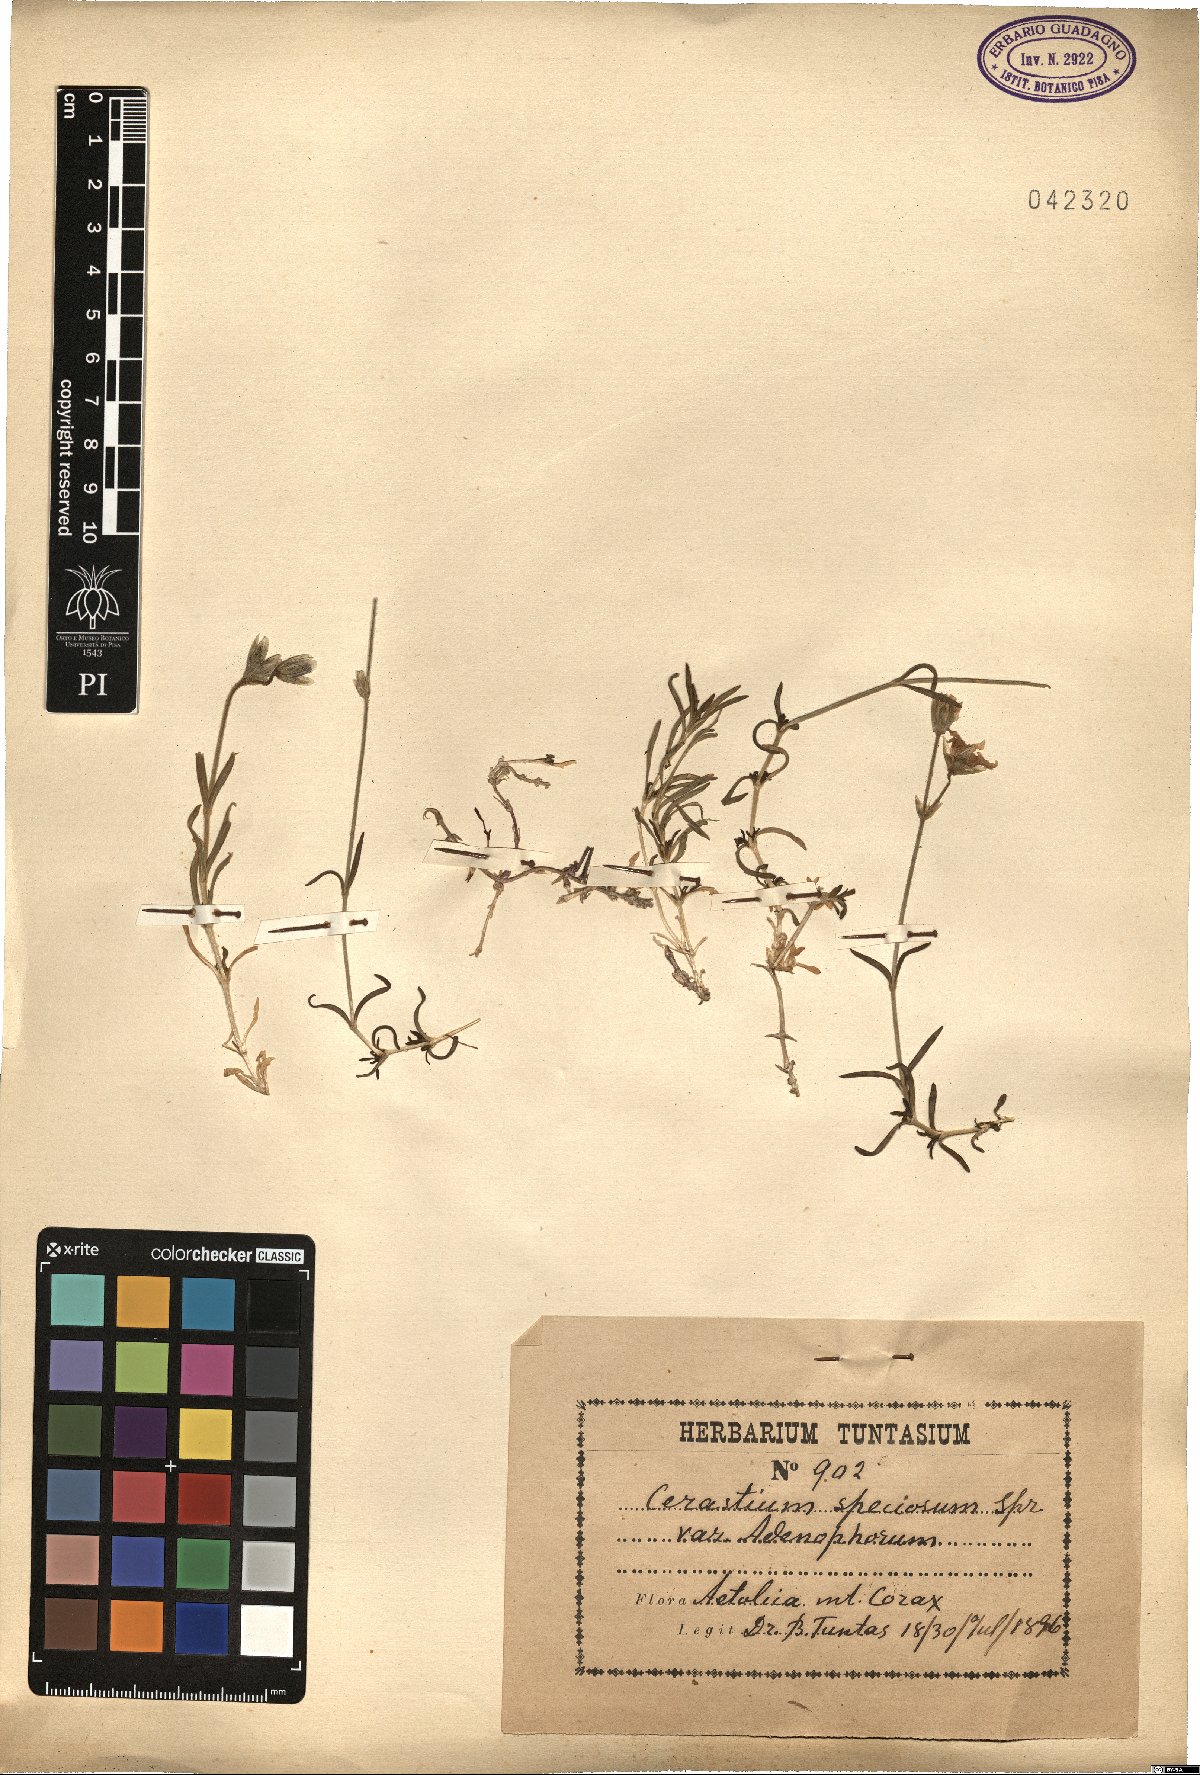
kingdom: Plantae
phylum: Tracheophyta
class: Magnoliopsida
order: Caryophyllales
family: Caryophyllaceae
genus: Cerastium
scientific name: Cerastium banaticum
